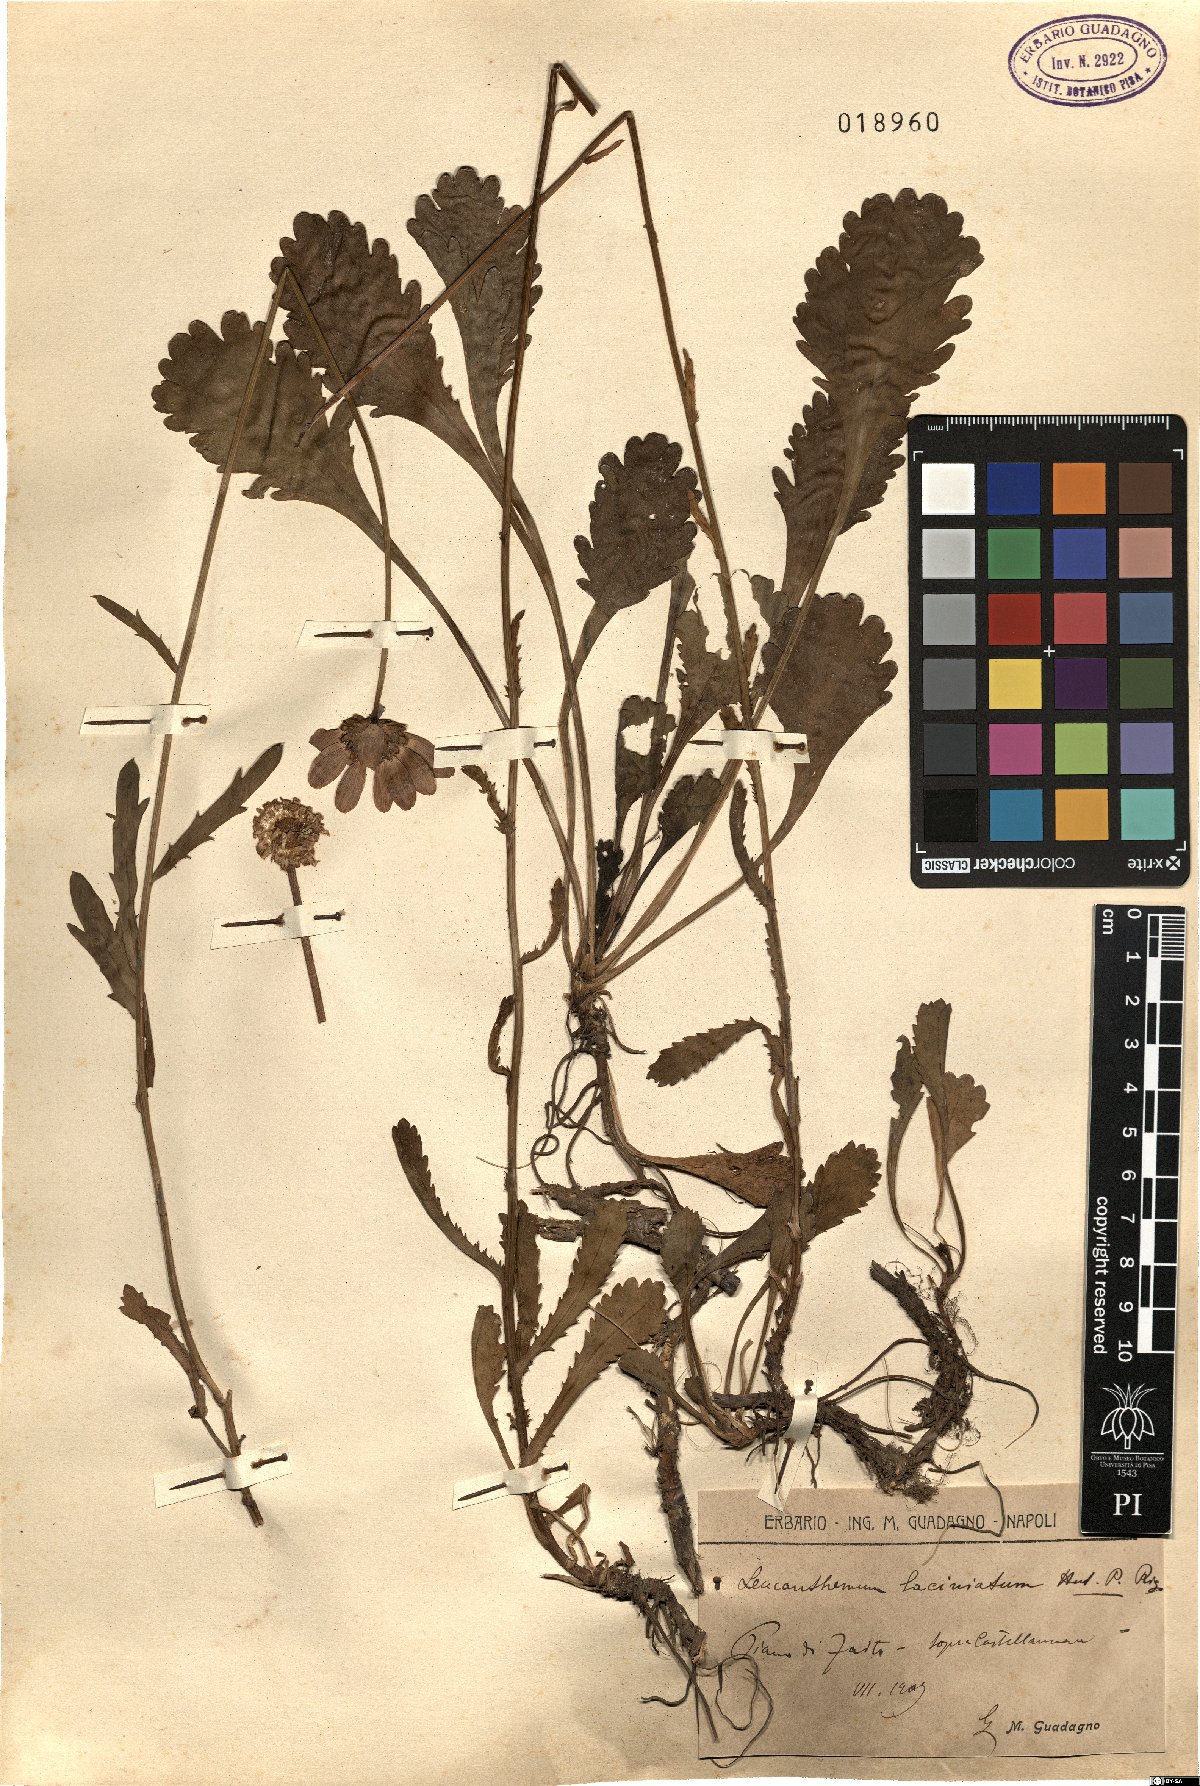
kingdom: Plantae
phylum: Tracheophyta
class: Magnoliopsida
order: Asterales
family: Asteraceae
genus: Leucanthemum
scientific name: Leucanthemum laciniatum
